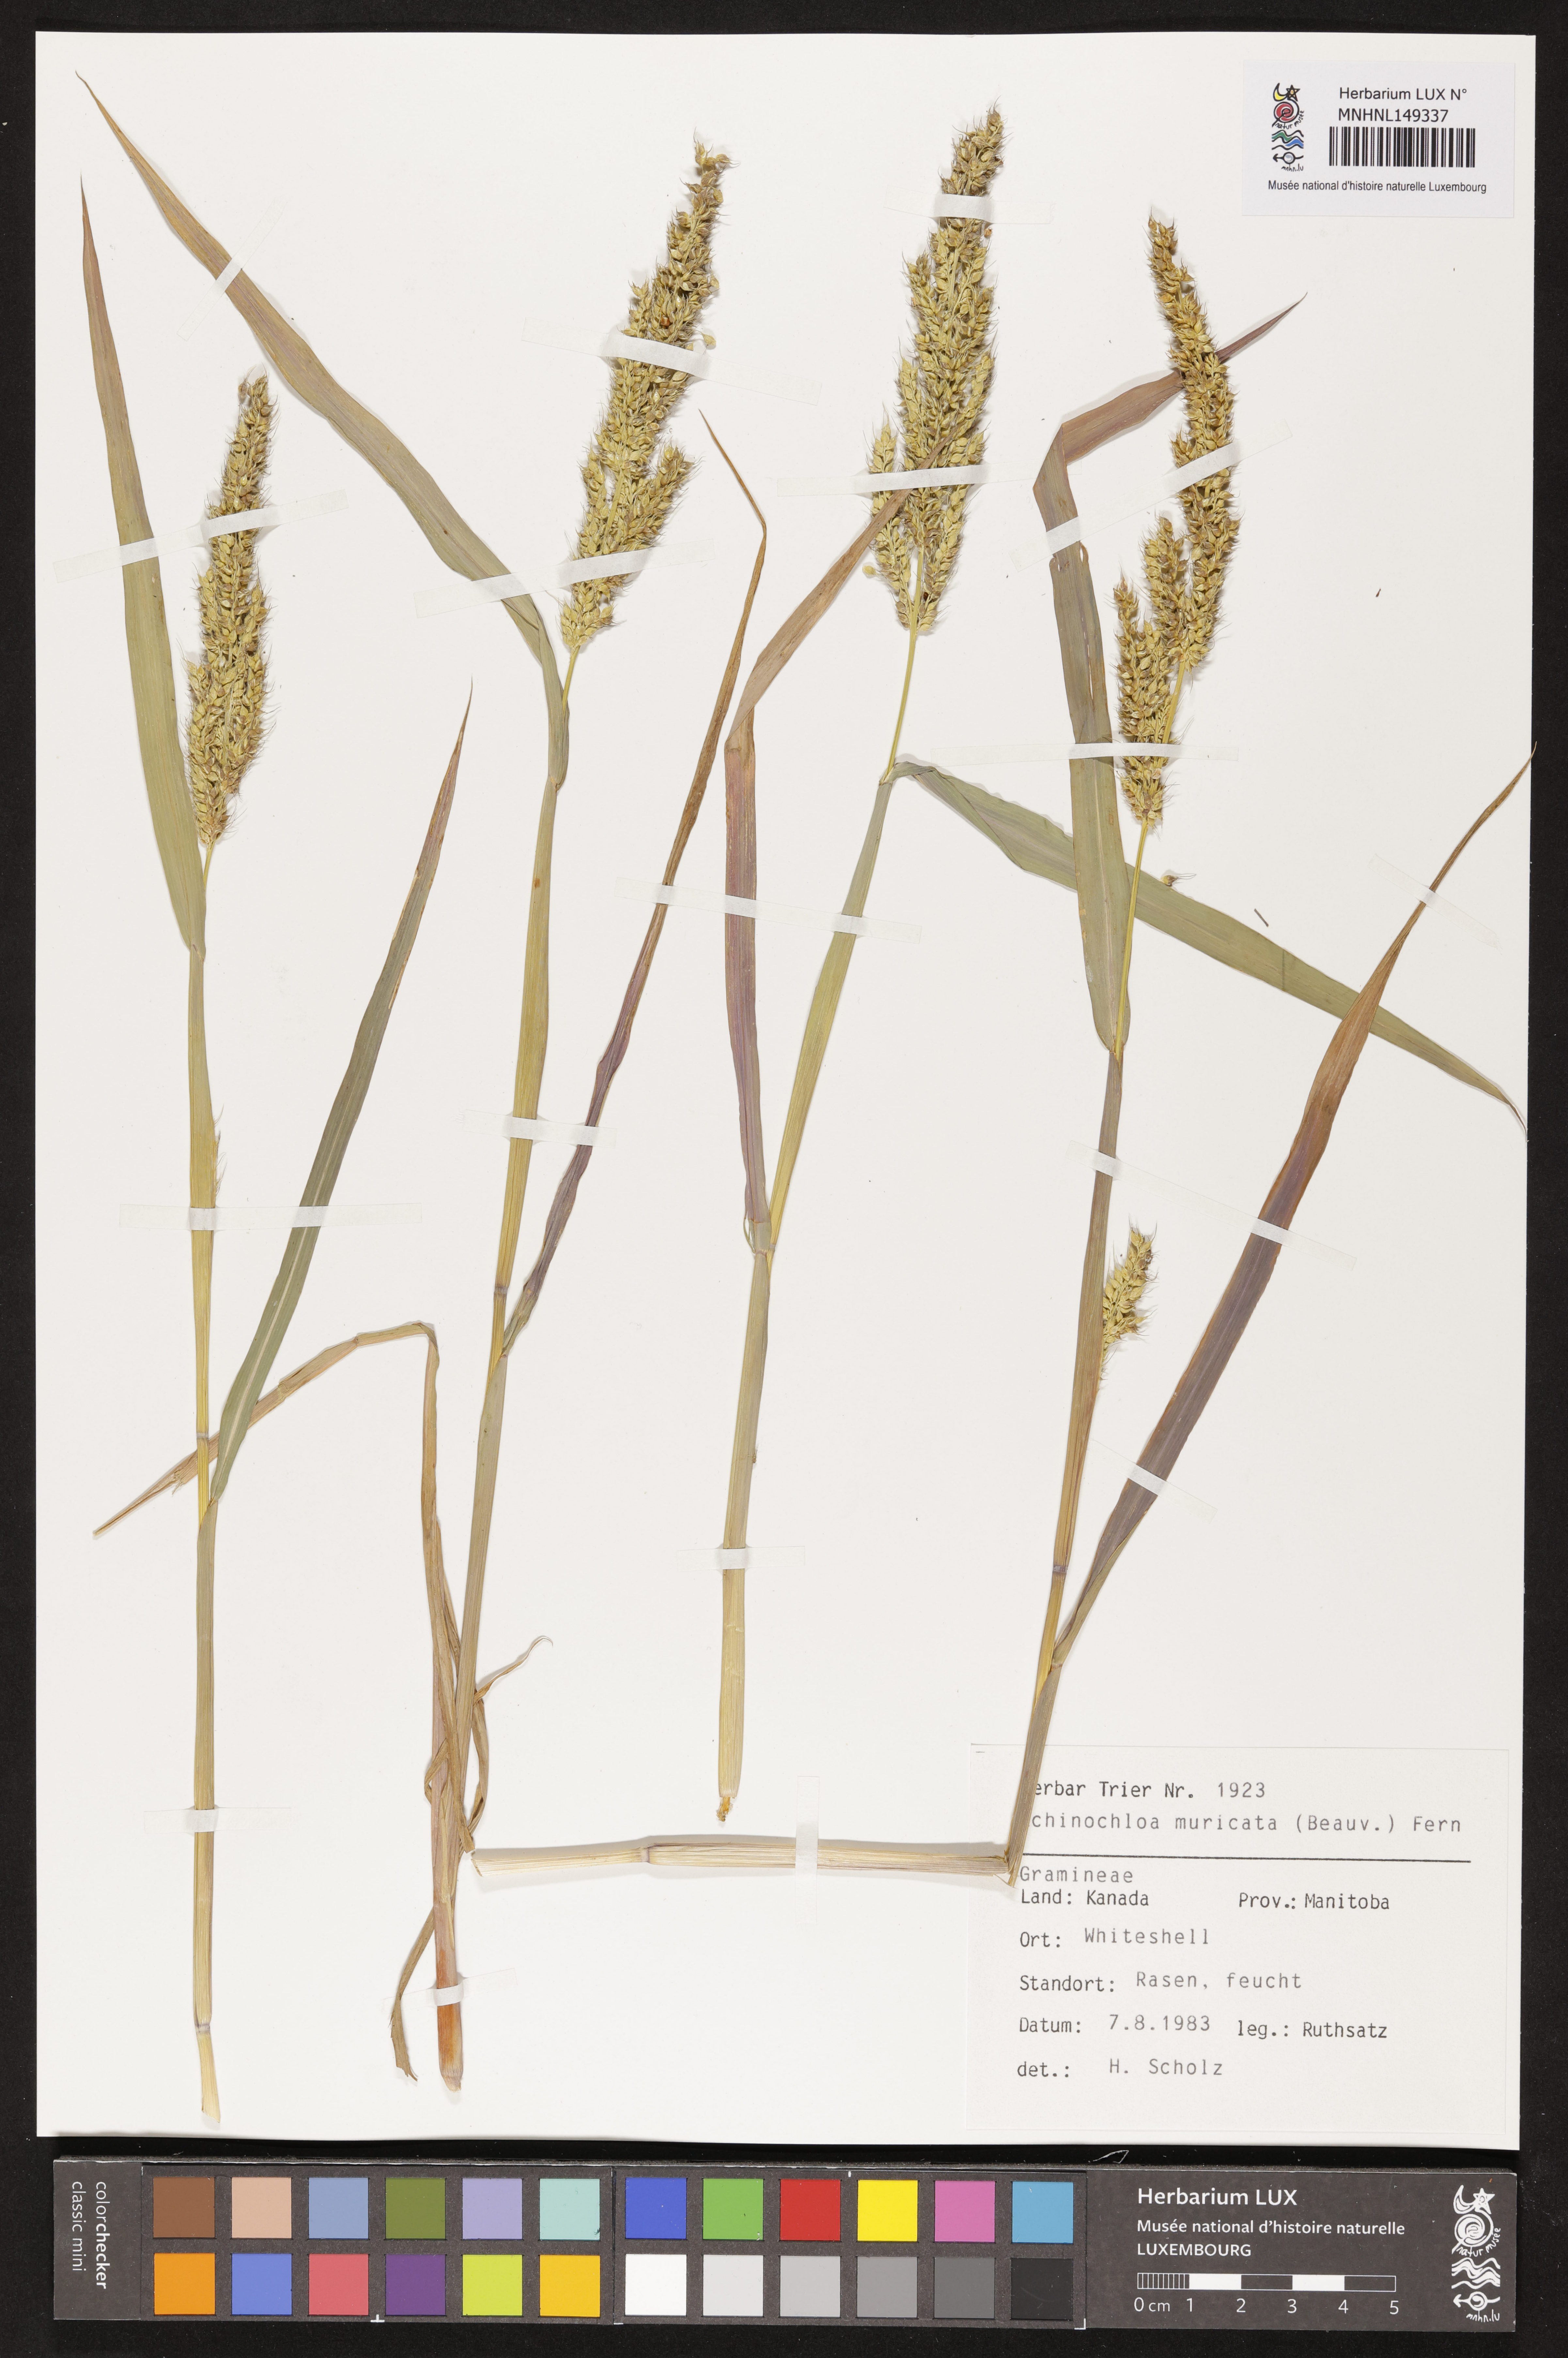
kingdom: Plantae
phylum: Tracheophyta
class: Liliopsida
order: Poales
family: Poaceae
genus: Echinochloa
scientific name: Echinochloa muricata
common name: American barnyard grass
